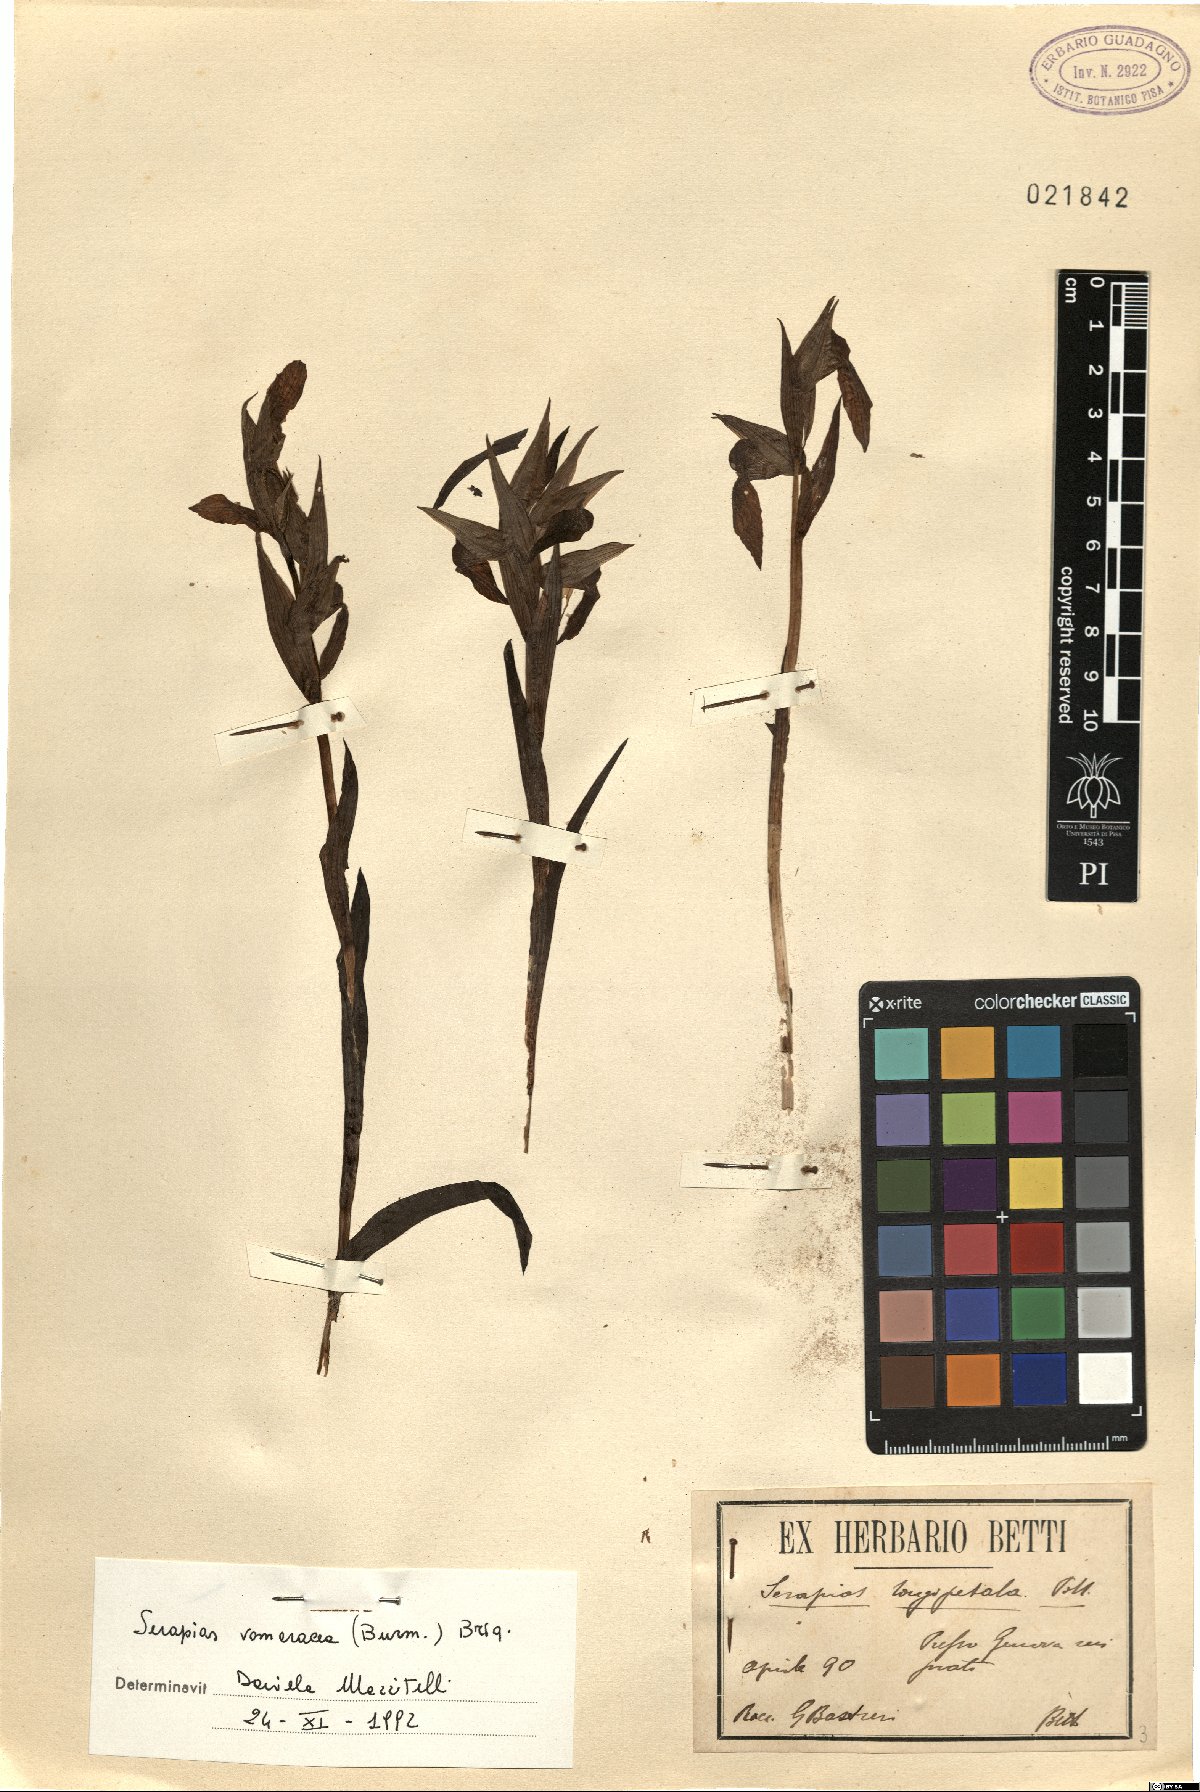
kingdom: Plantae
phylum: Tracheophyta
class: Liliopsida
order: Asparagales
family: Orchidaceae
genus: Serapias
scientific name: Serapias vomeracea
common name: Long-lipped tongue-orchid
